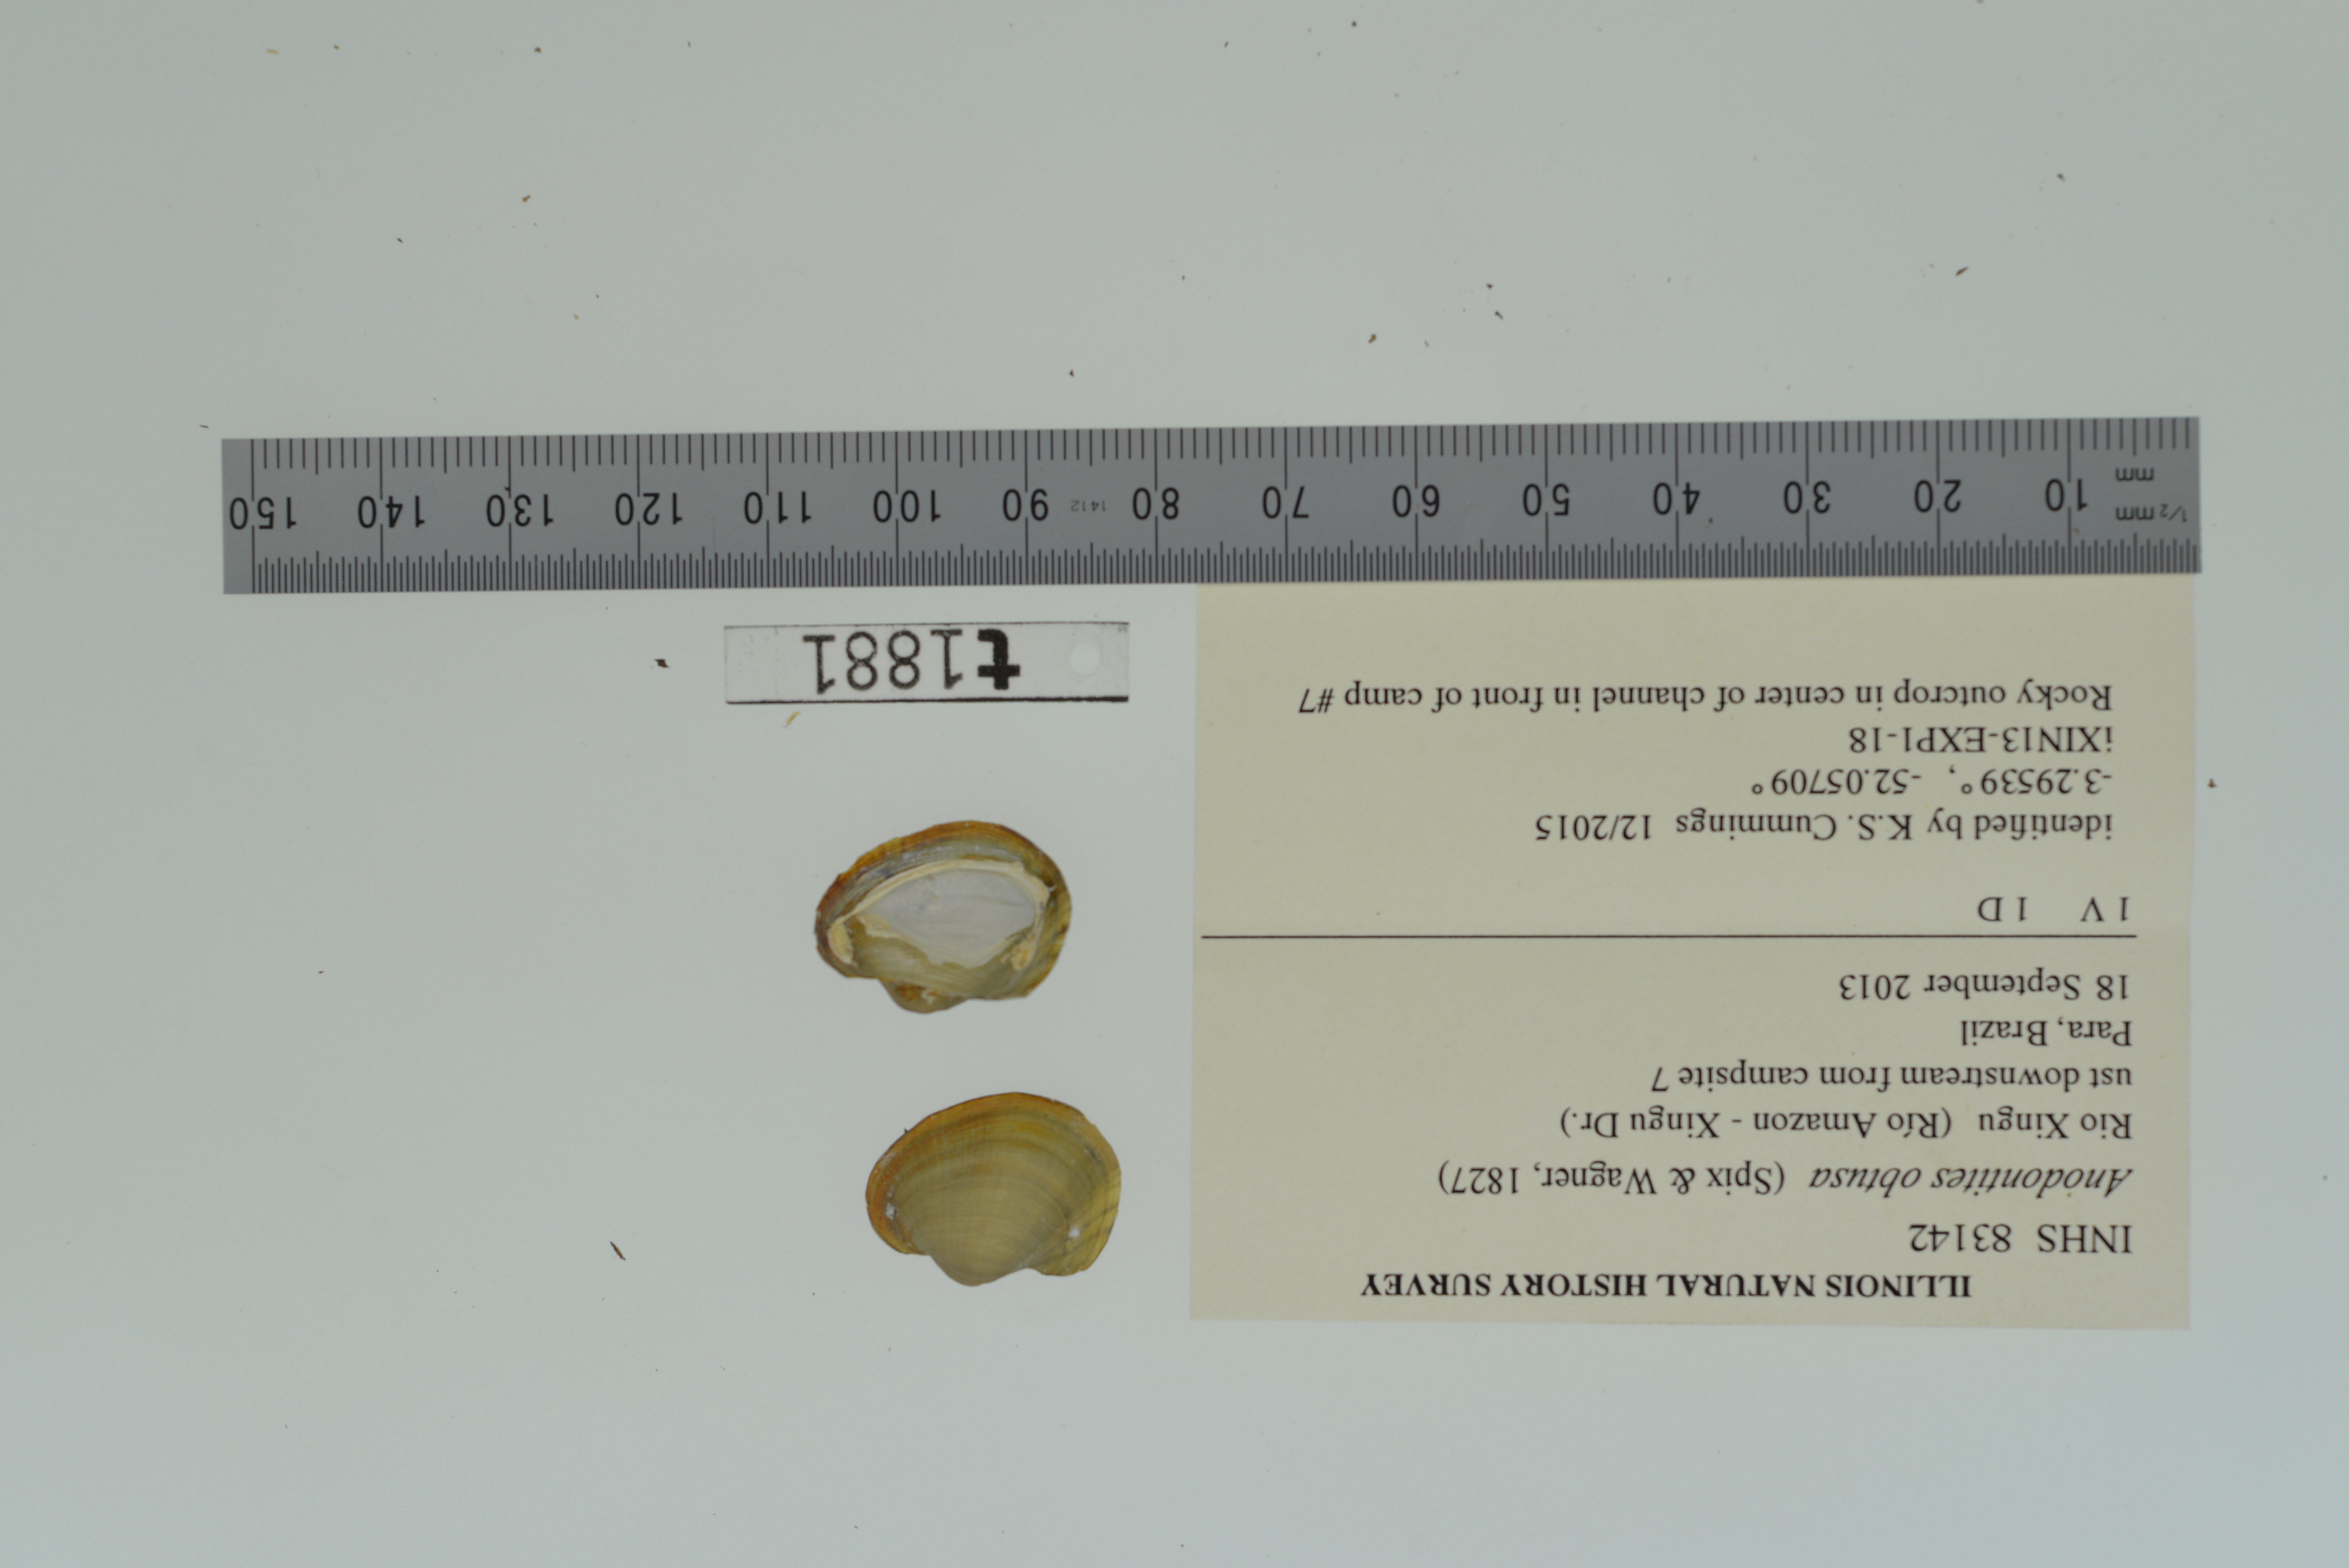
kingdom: Animalia
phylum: Mollusca
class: Bivalvia
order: Unionida
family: Mycetopodidae
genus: Anodontites
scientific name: Anodontites
